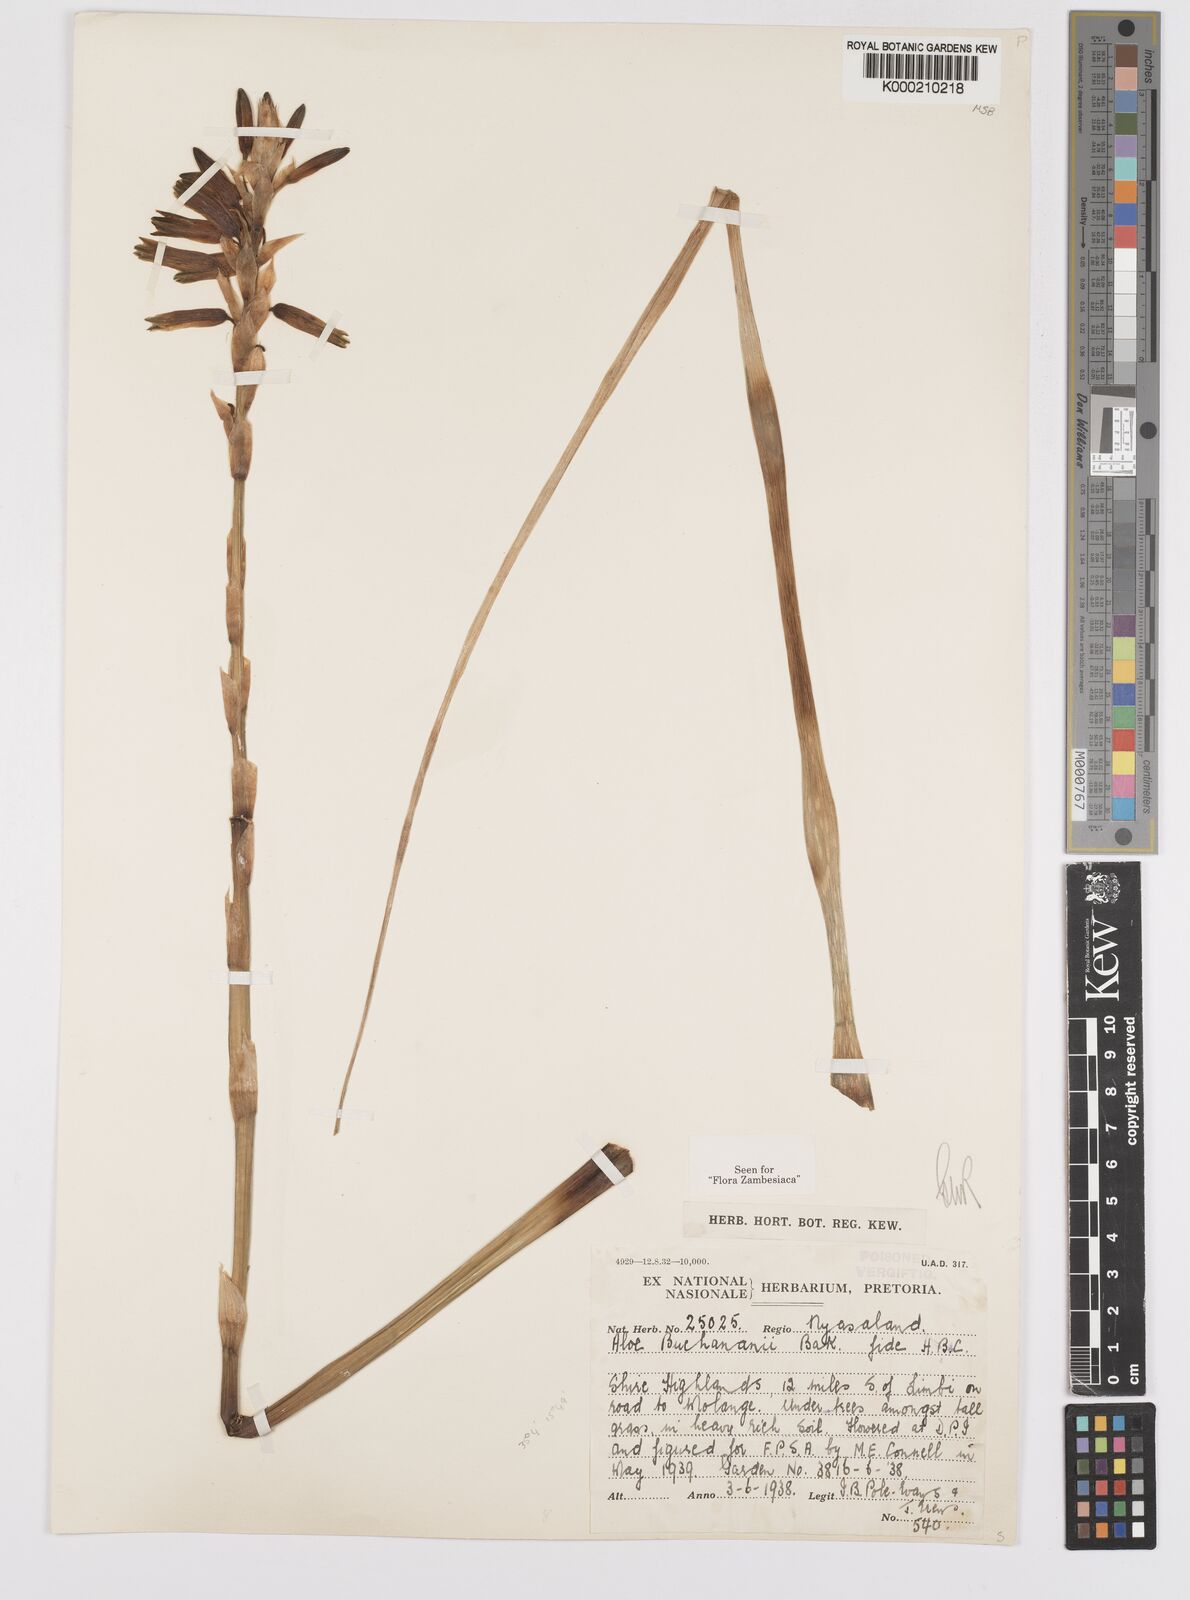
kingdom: Plantae
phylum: Tracheophyta
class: Liliopsida
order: Asparagales
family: Asphodelaceae
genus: Aloe
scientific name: Aloe buchananii
